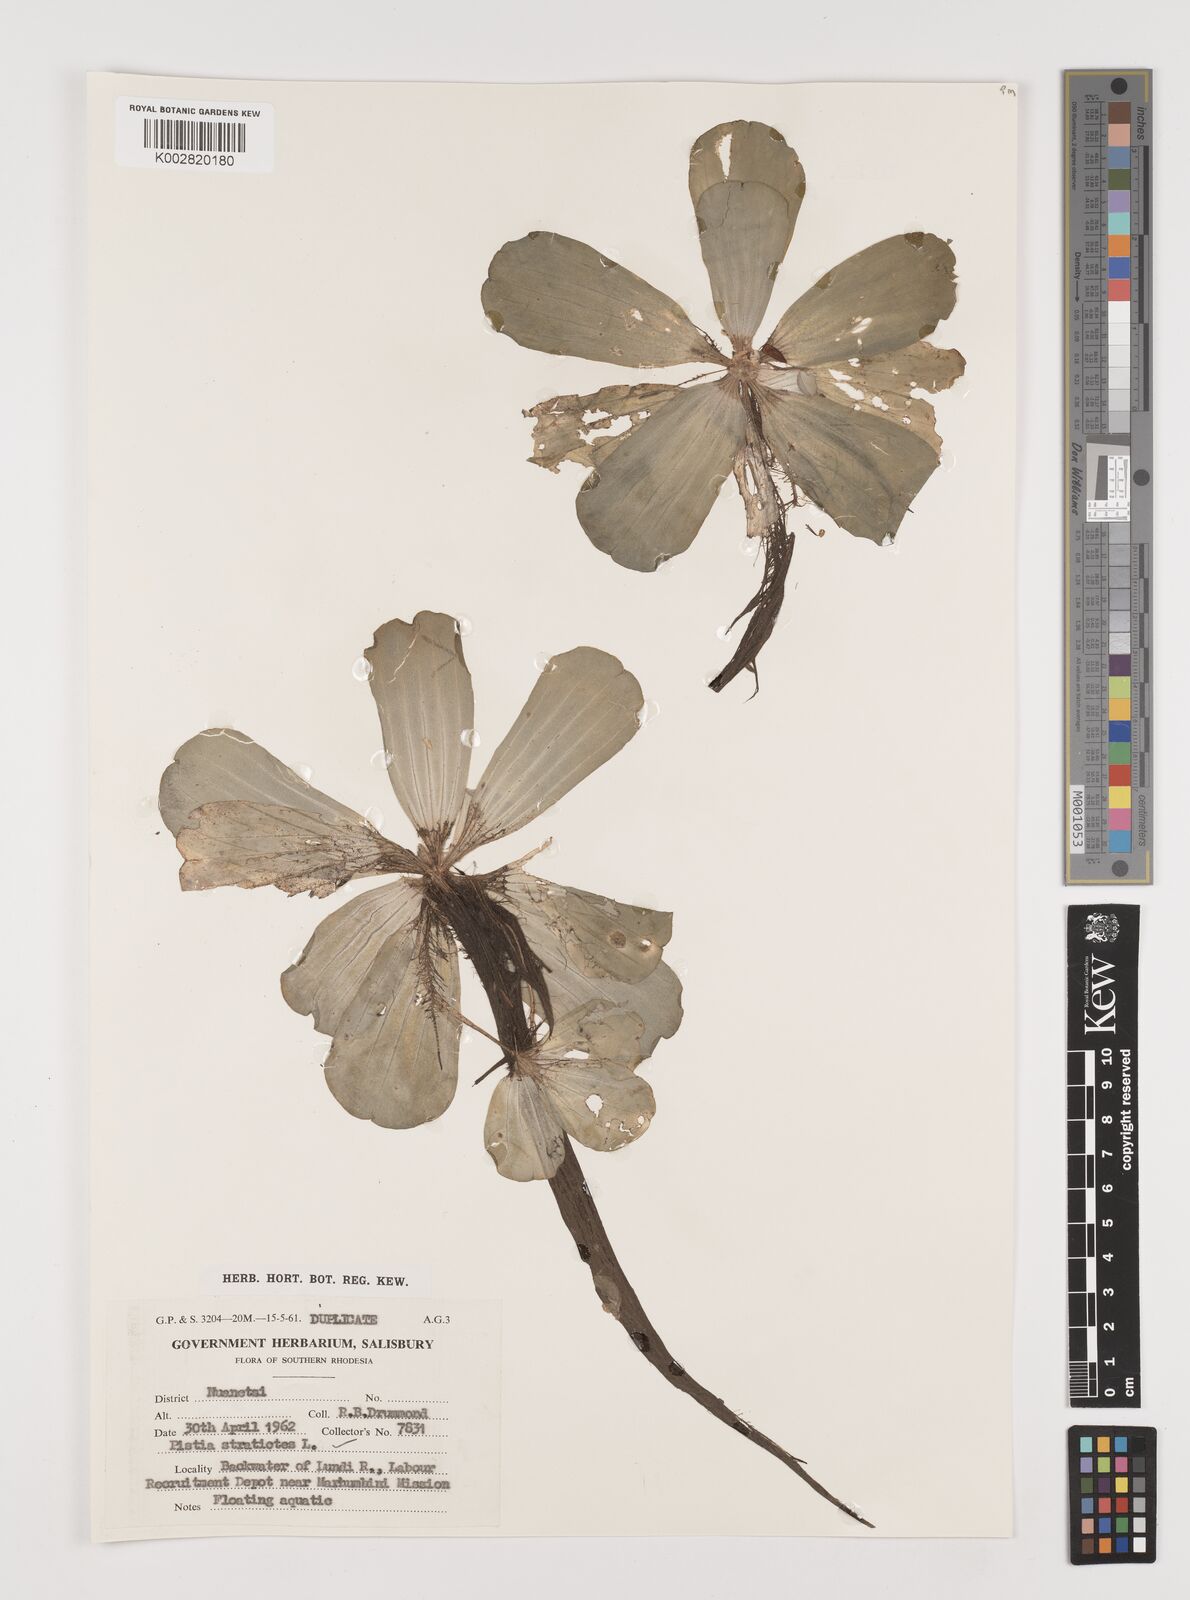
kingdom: Plantae
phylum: Tracheophyta
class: Liliopsida
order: Alismatales
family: Araceae
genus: Pistia
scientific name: Pistia stratiotes
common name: Water lettuce
